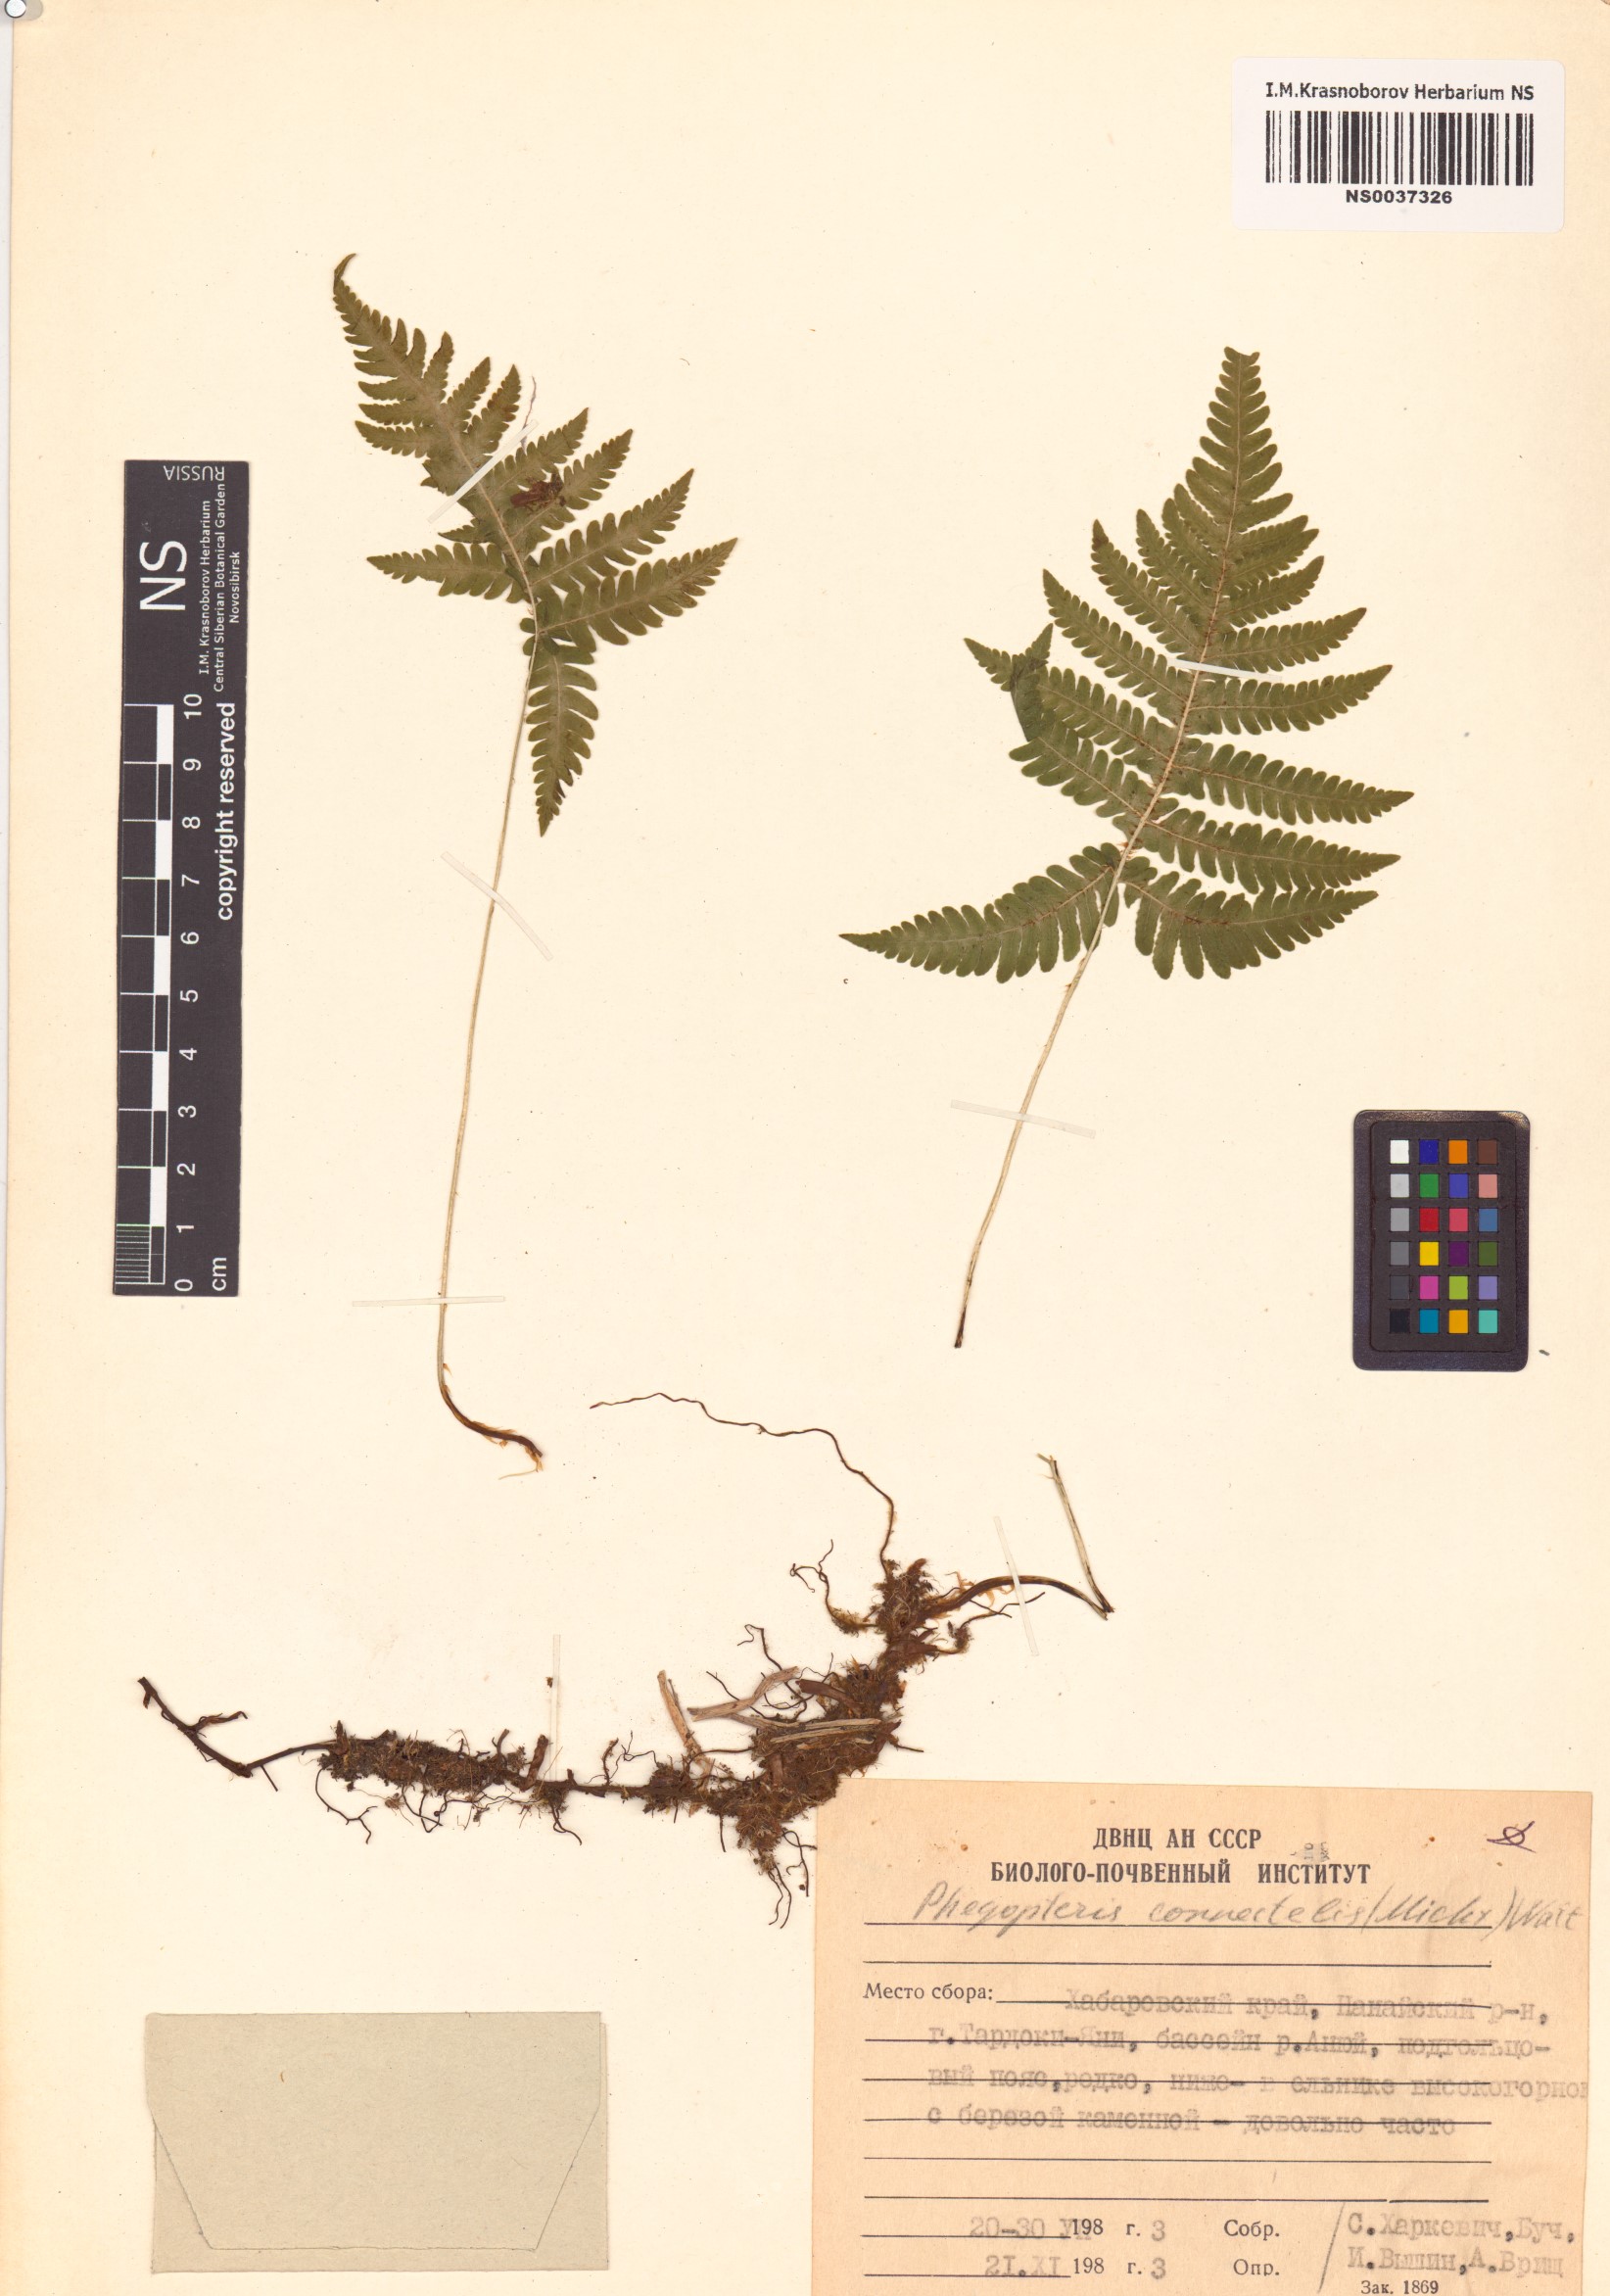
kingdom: Plantae
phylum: Tracheophyta
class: Polypodiopsida
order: Polypodiales
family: Thelypteridaceae
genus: Phegopteris
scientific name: Phegopteris connectilis
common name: Beech fern
